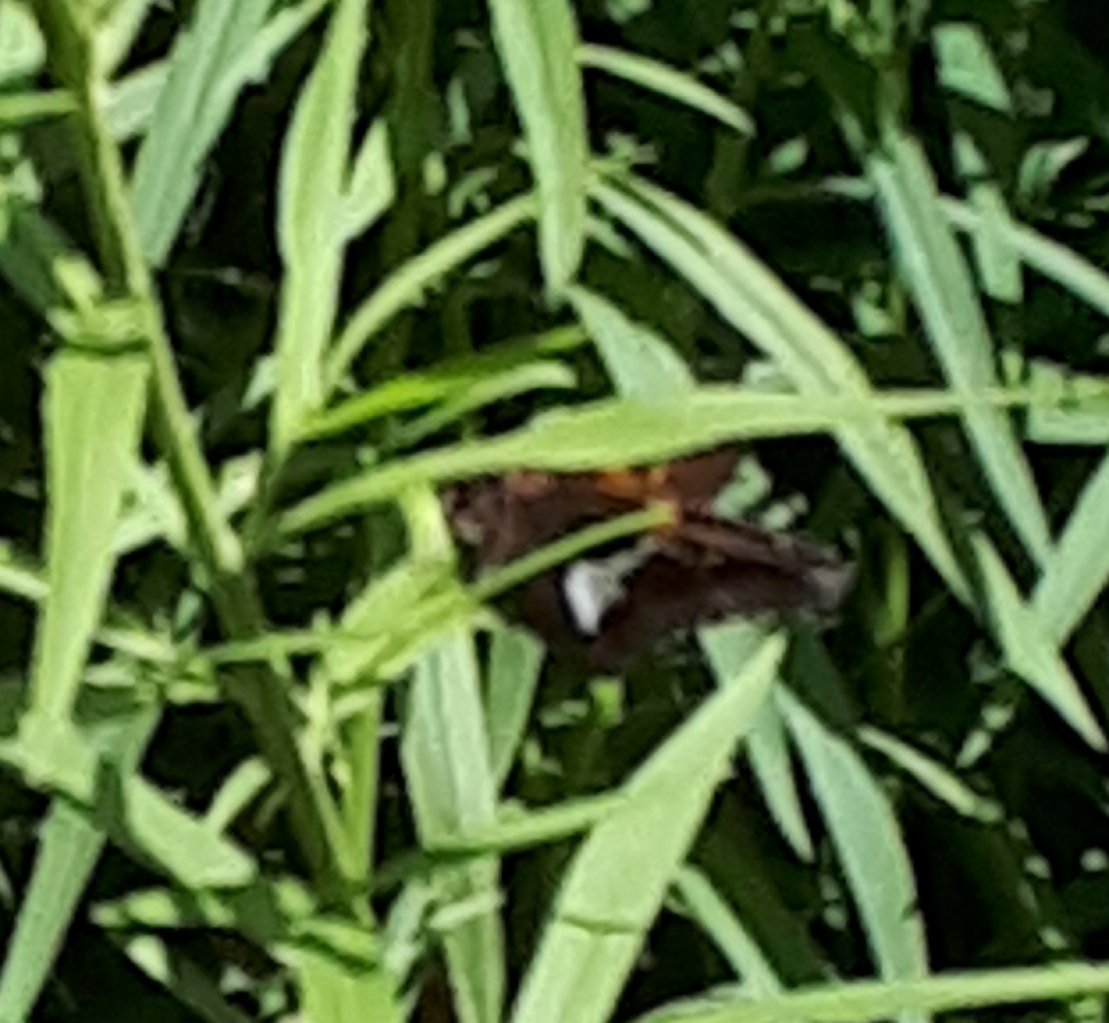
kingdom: Animalia
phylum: Arthropoda
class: Insecta
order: Lepidoptera
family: Hesperiidae
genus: Epargyreus
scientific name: Epargyreus clarus
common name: Silver-spotted Skipper
